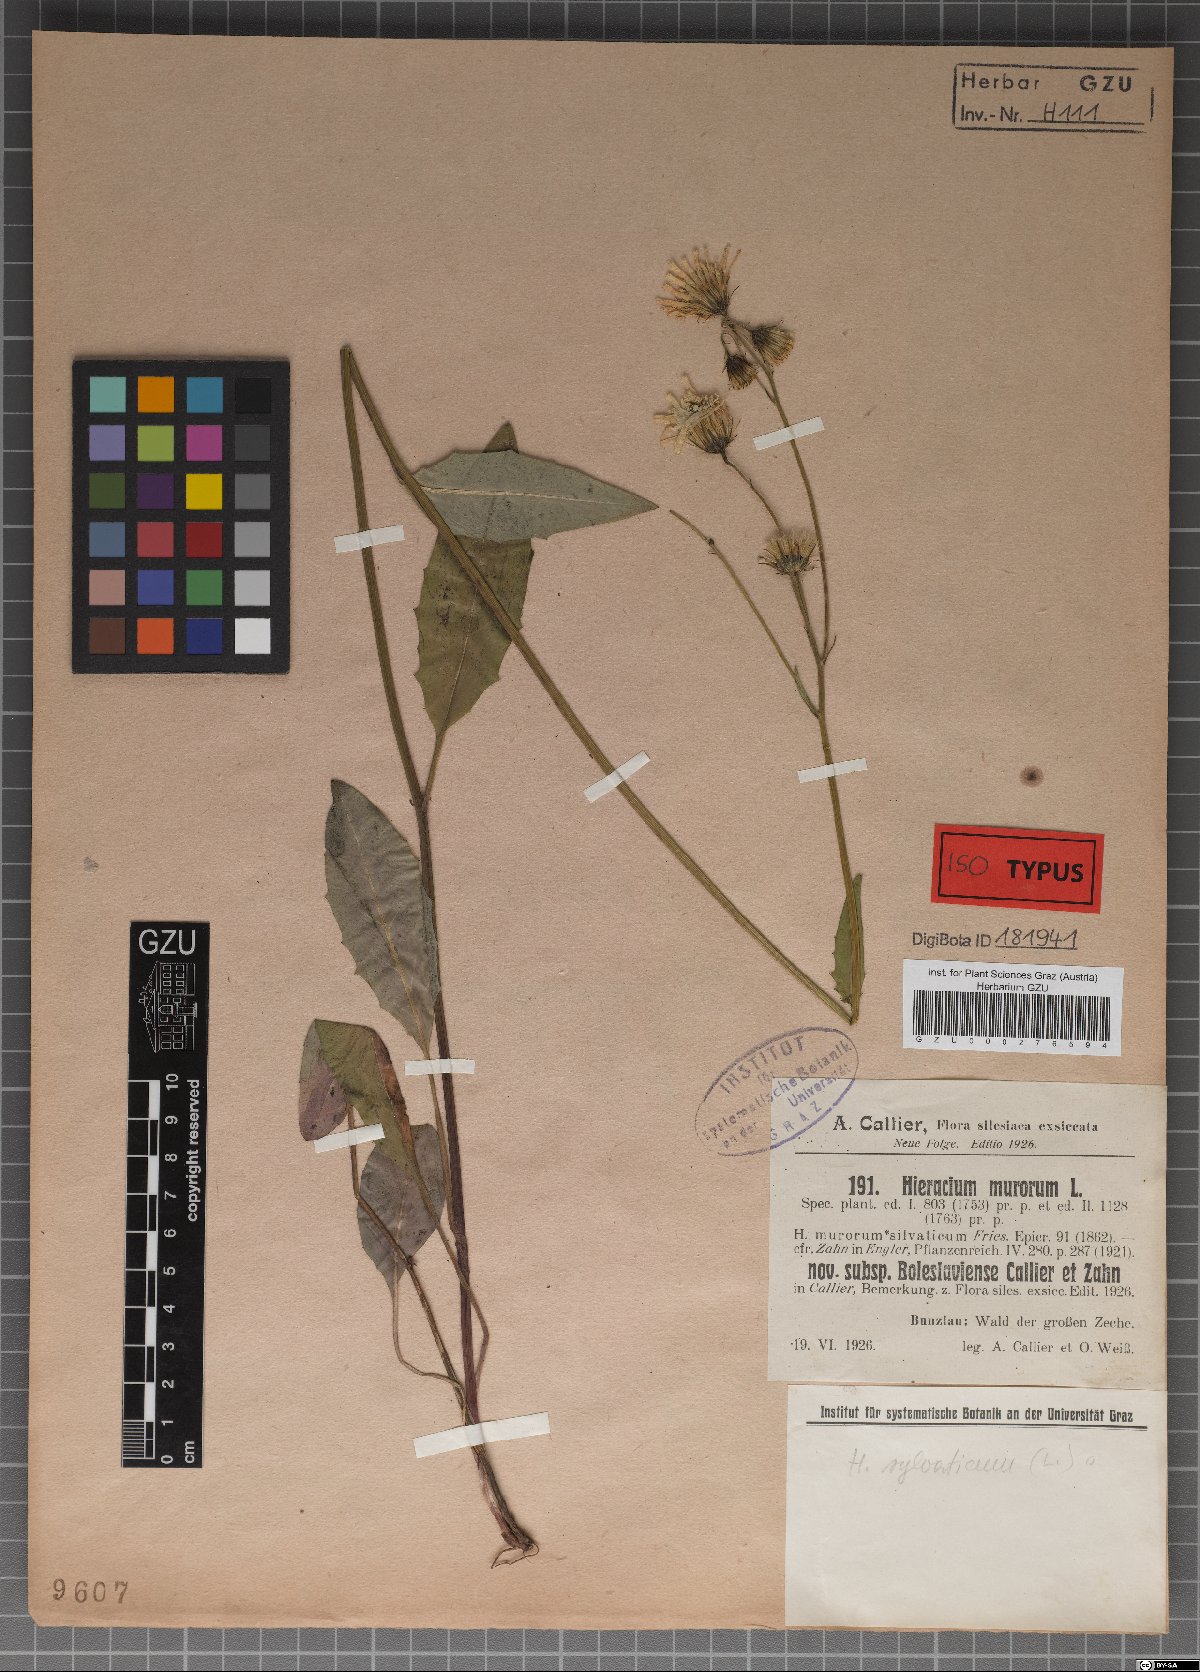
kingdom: Plantae
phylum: Tracheophyta
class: Magnoliopsida
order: Asterales
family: Asteraceae
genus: Hieracium
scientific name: Hieracium murorum
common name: Wall hawkweed
